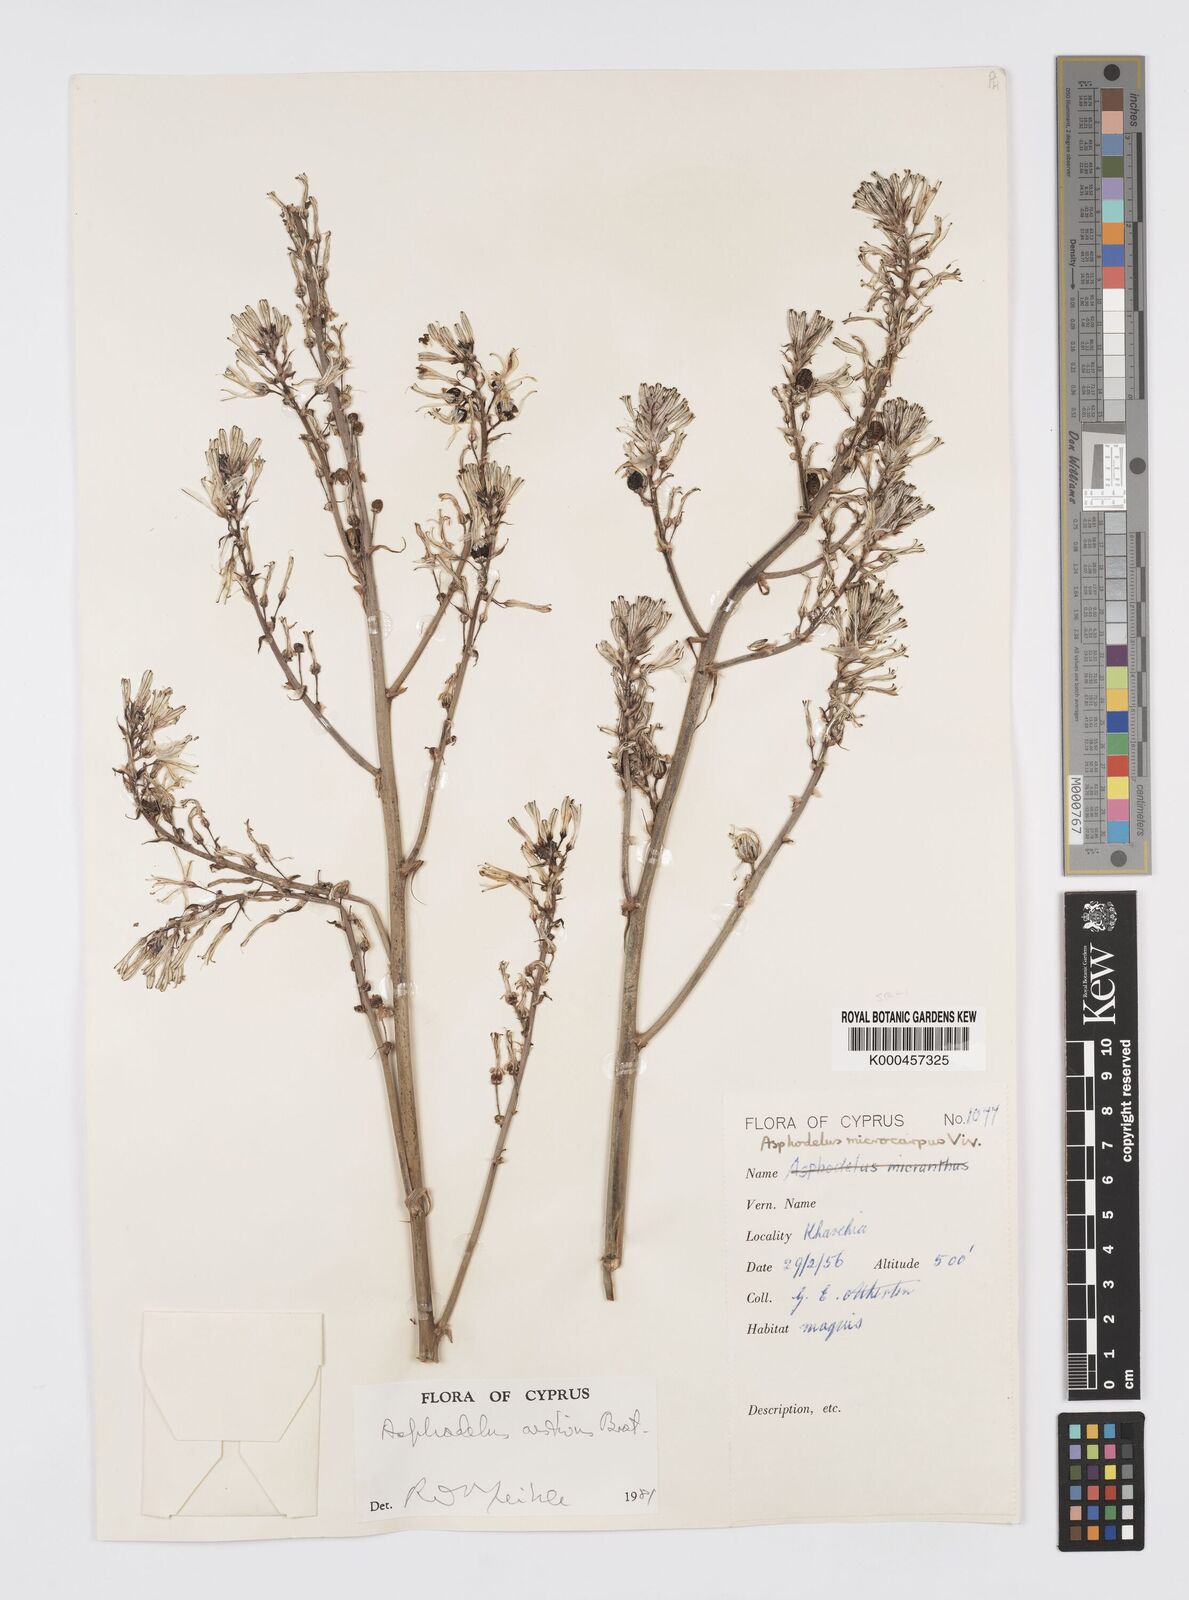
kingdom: Plantae
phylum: Tracheophyta
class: Liliopsida
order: Asparagales
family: Asphodelaceae
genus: Asphodelus
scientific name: Asphodelus aestivus
